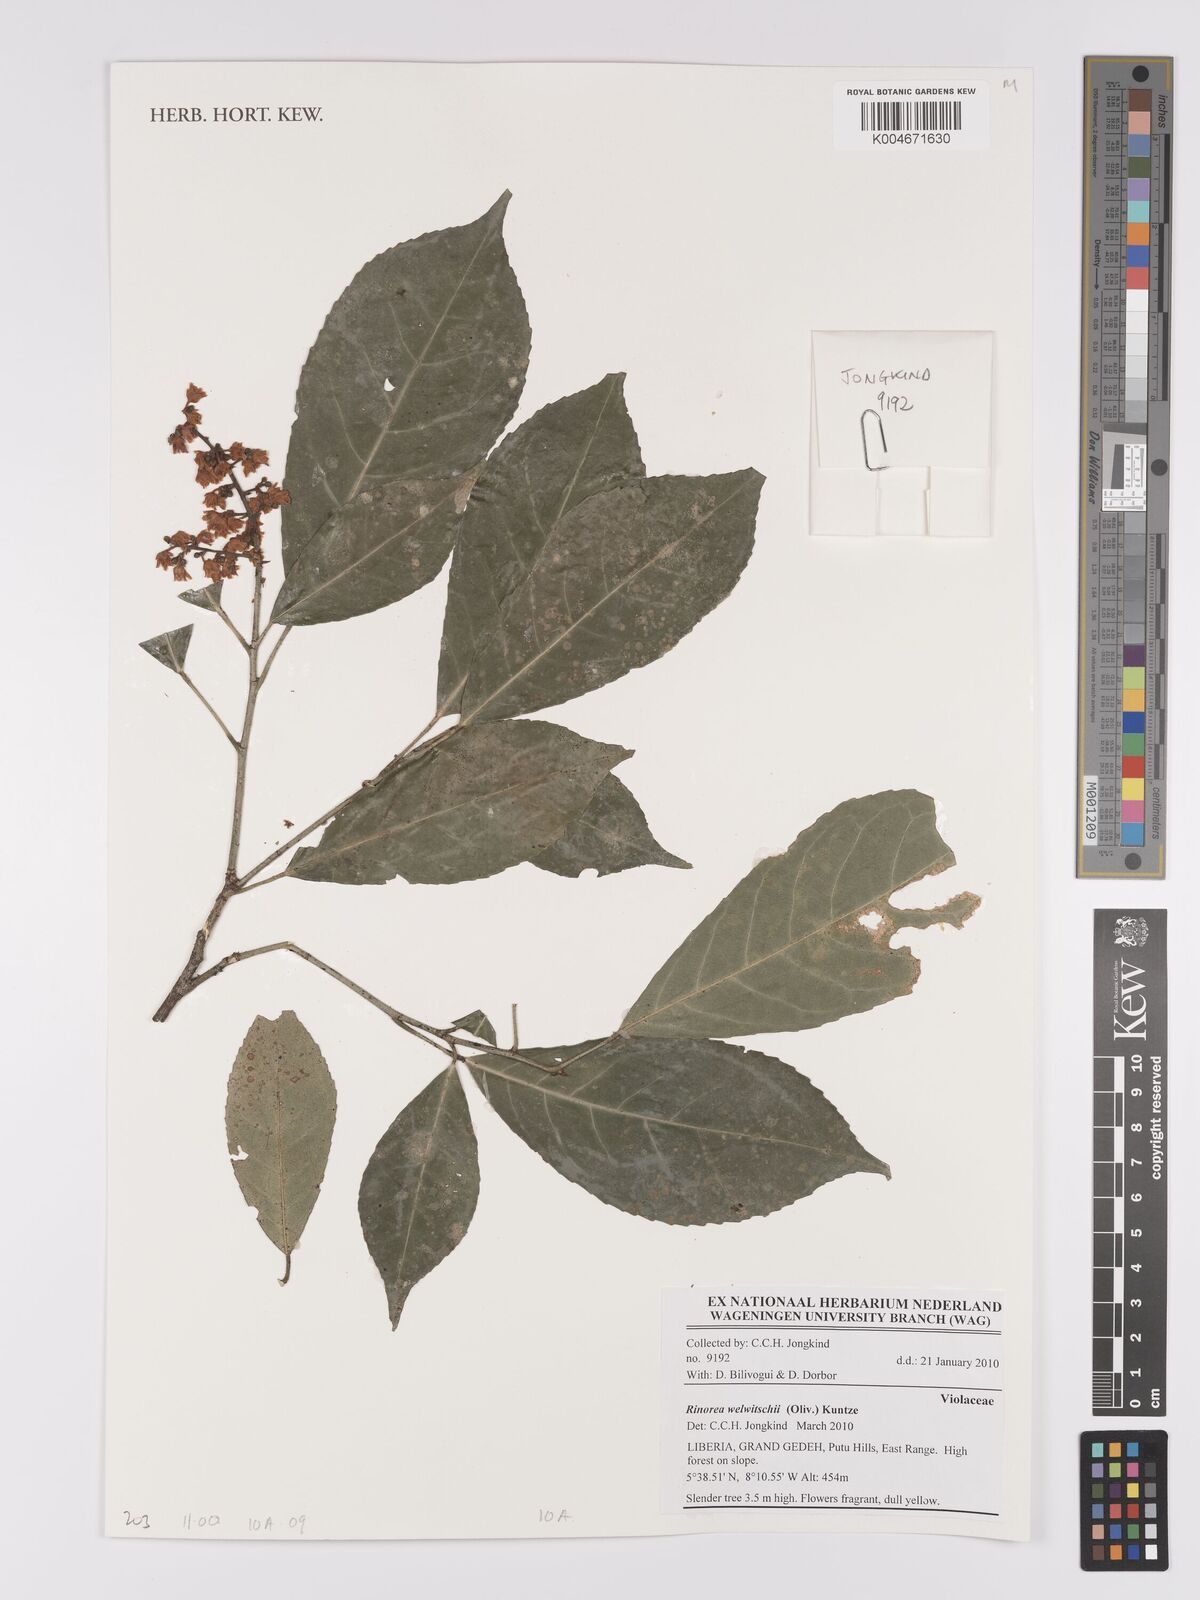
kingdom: Plantae
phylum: Tracheophyta
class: Magnoliopsida
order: Malpighiales
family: Violaceae
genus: Rinorea
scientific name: Rinorea welwitschii
